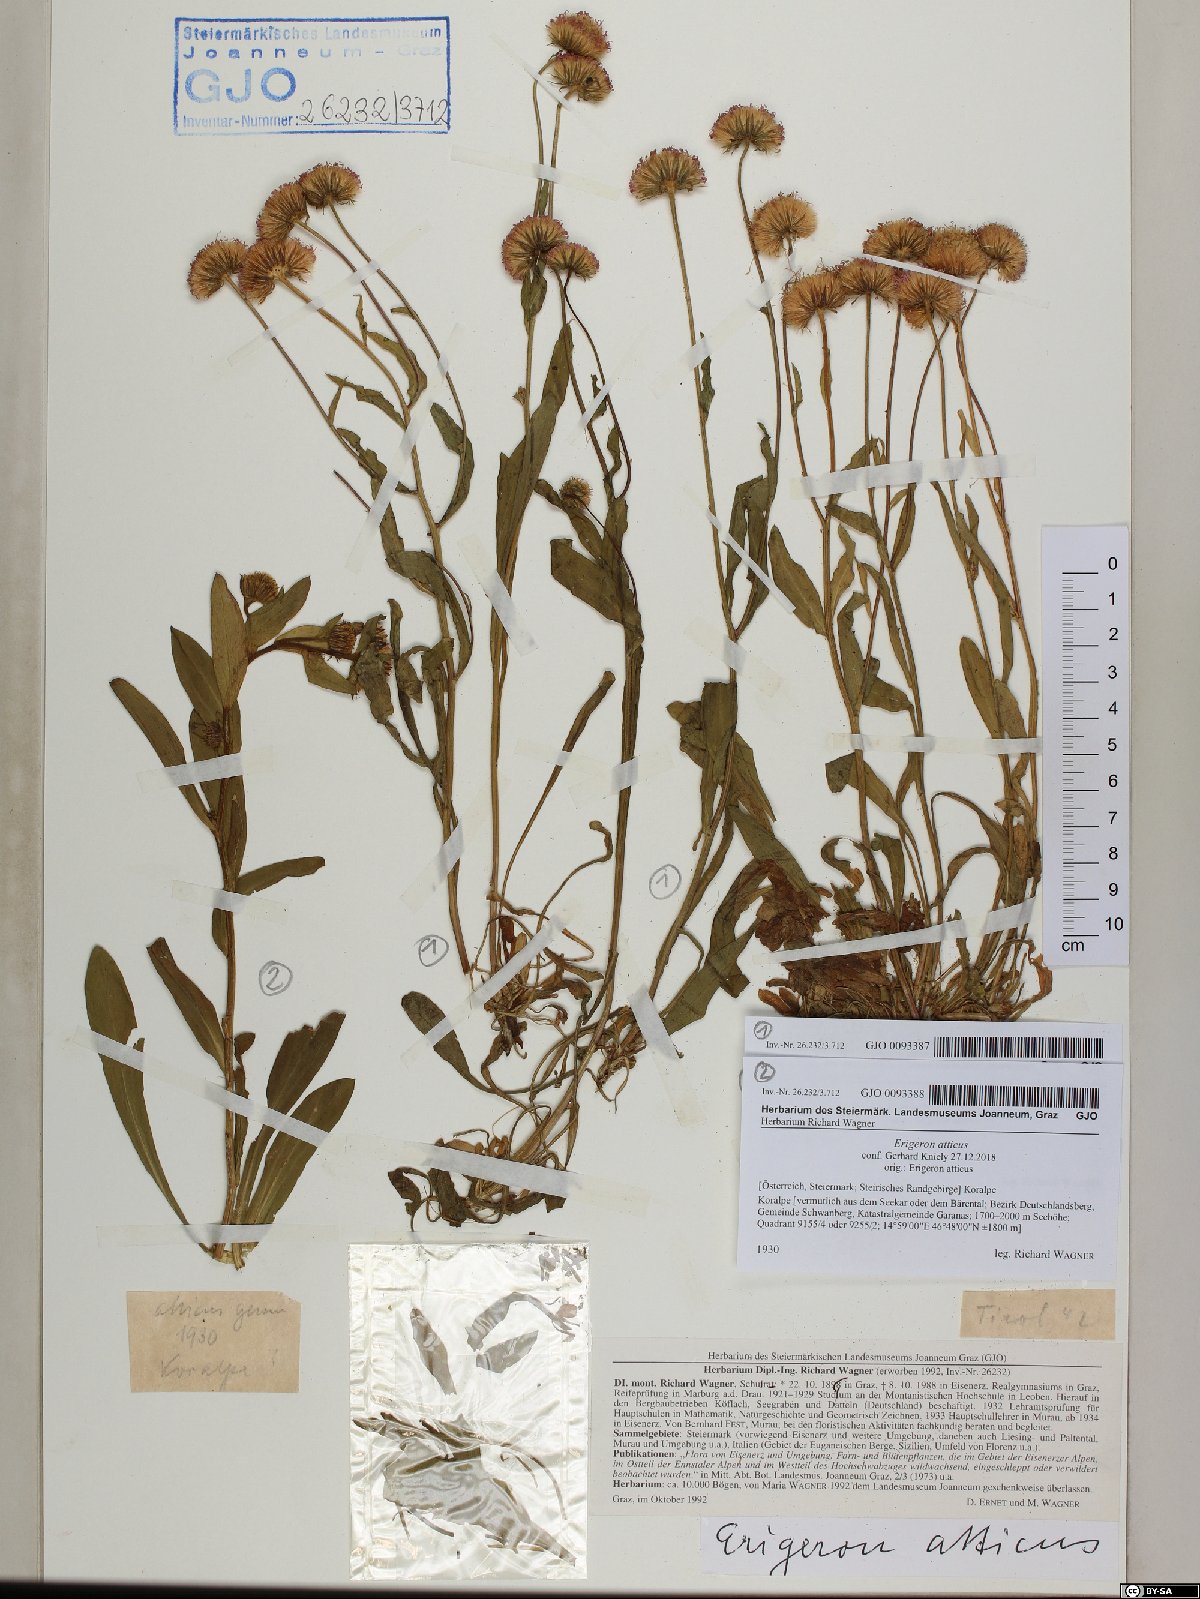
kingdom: Plantae
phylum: Tracheophyta
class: Magnoliopsida
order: Asterales
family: Asteraceae
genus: Erigeron
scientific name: Erigeron atticus
